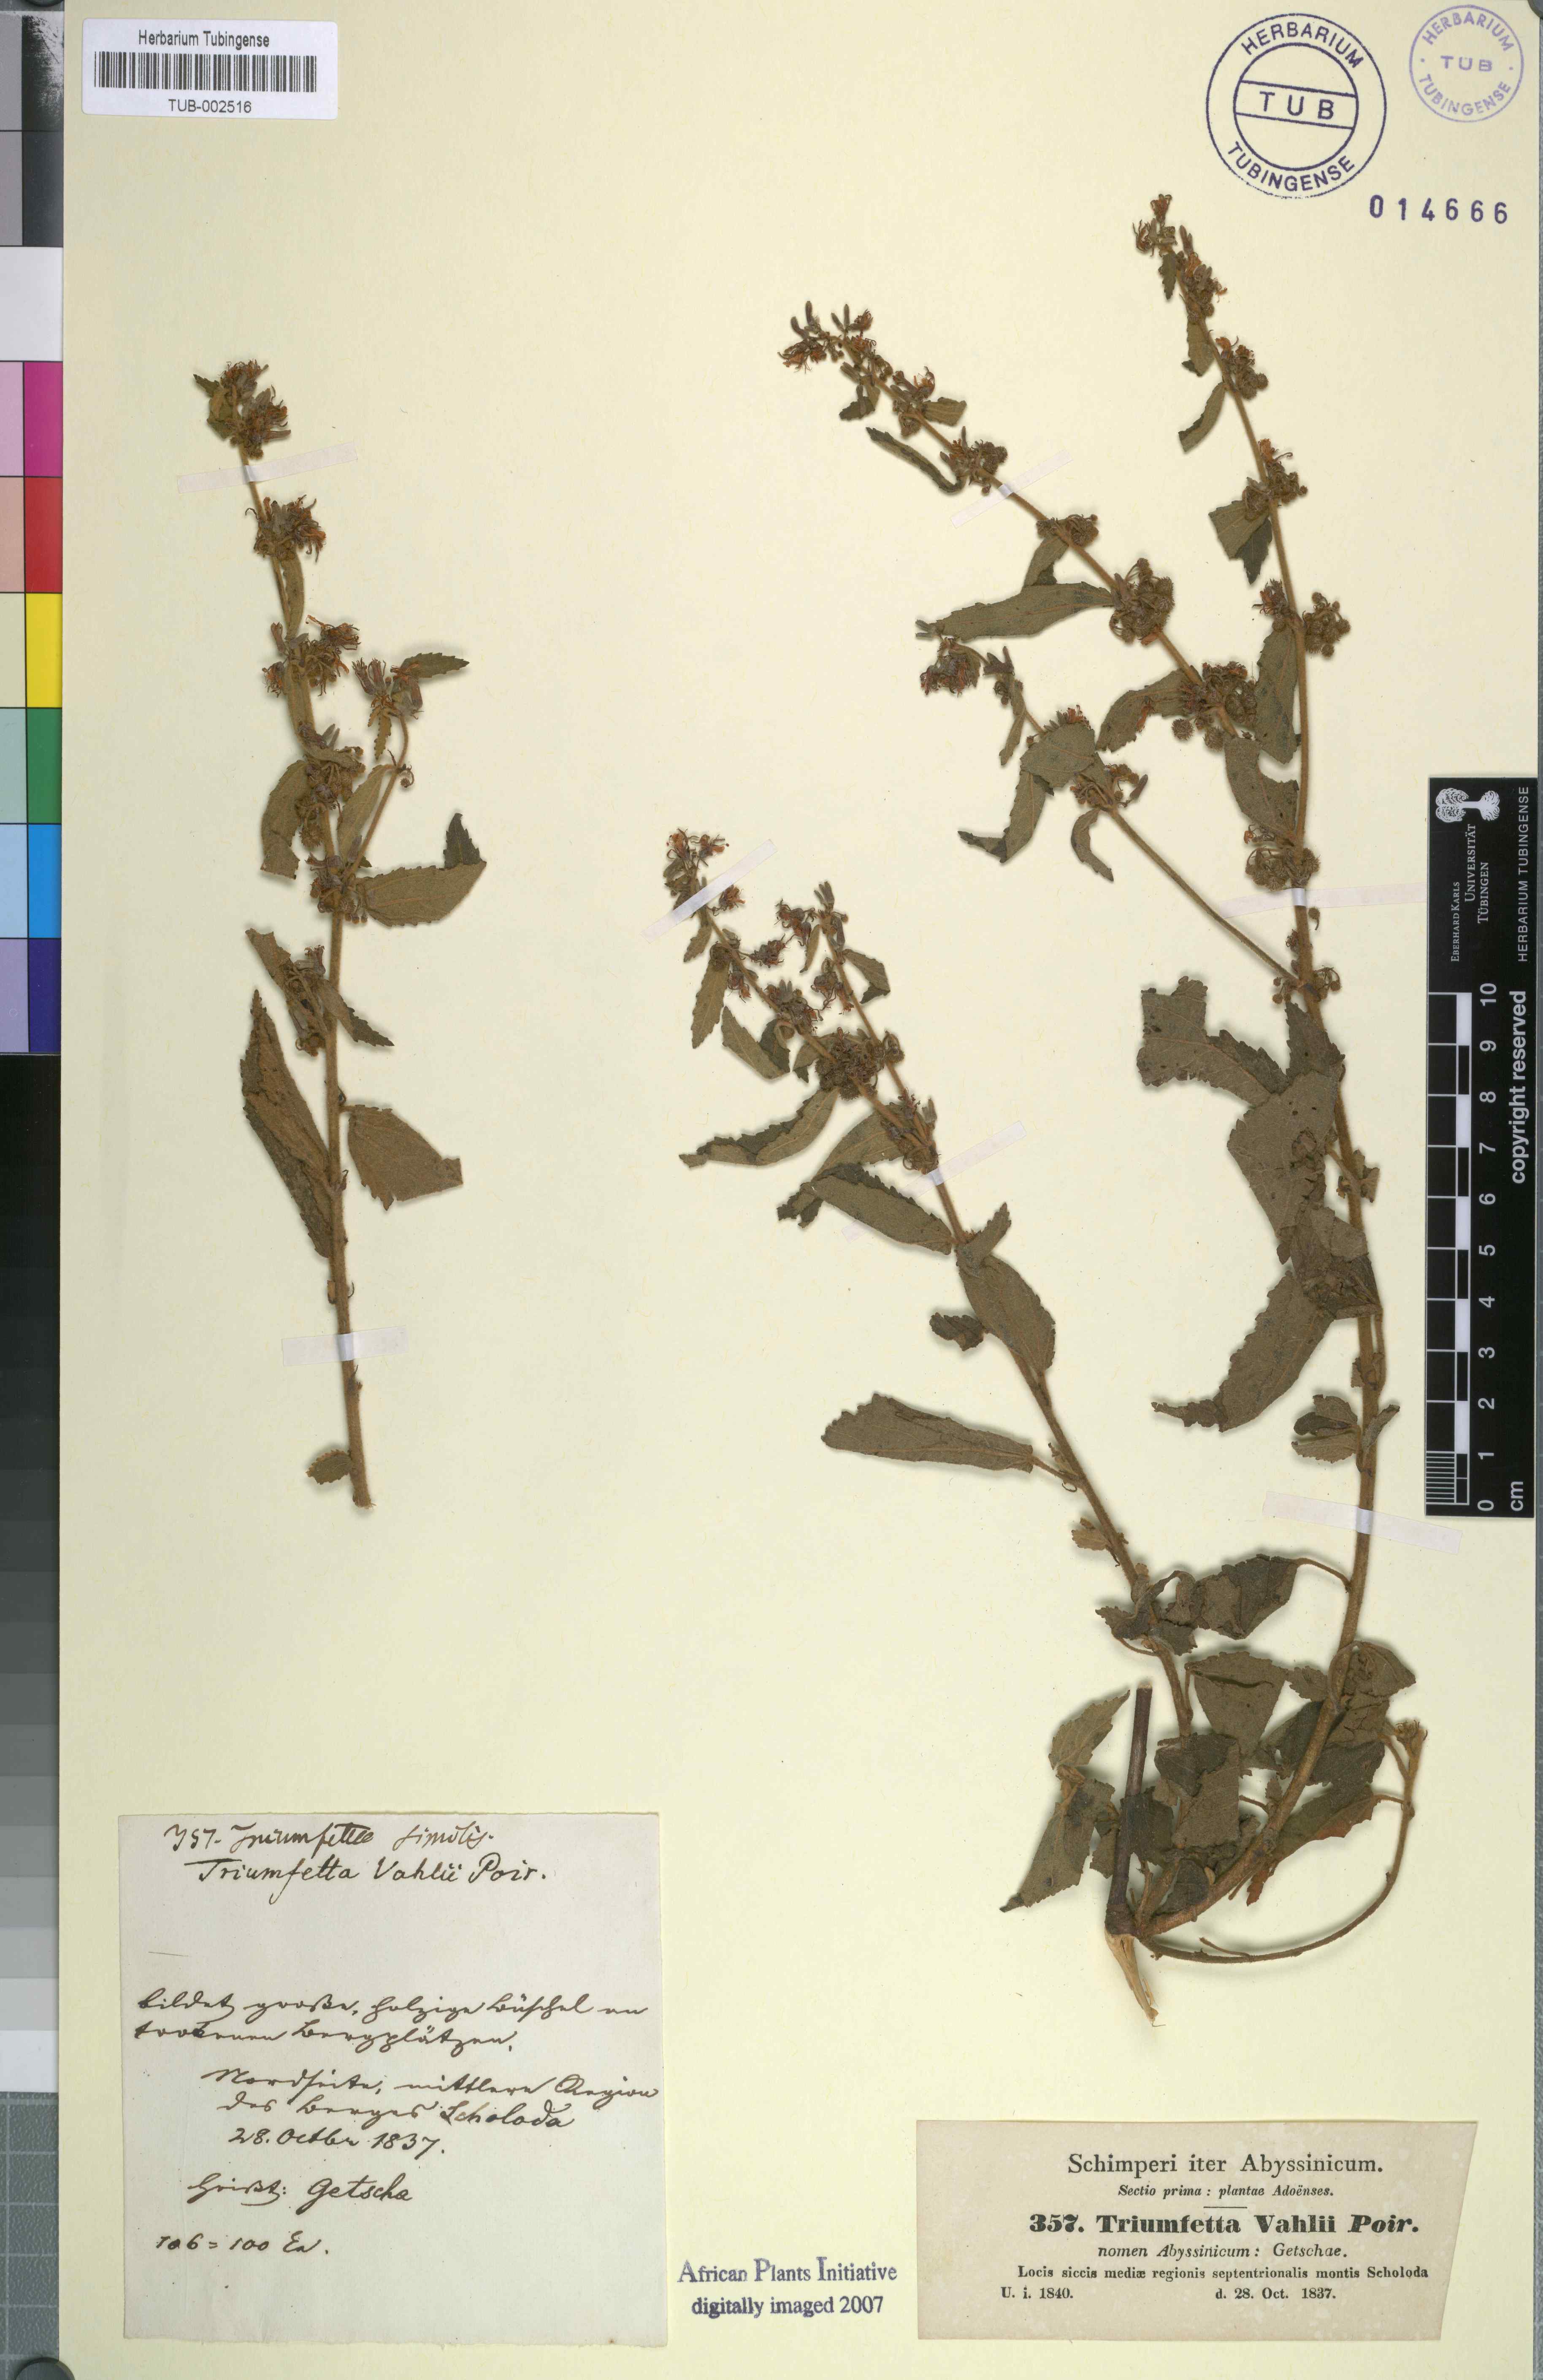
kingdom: Plantae
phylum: Tracheophyta
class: Magnoliopsida
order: Malvales
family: Malvaceae
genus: Triumfetta
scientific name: Triumfetta rhomboidea
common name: Diamond burbark
